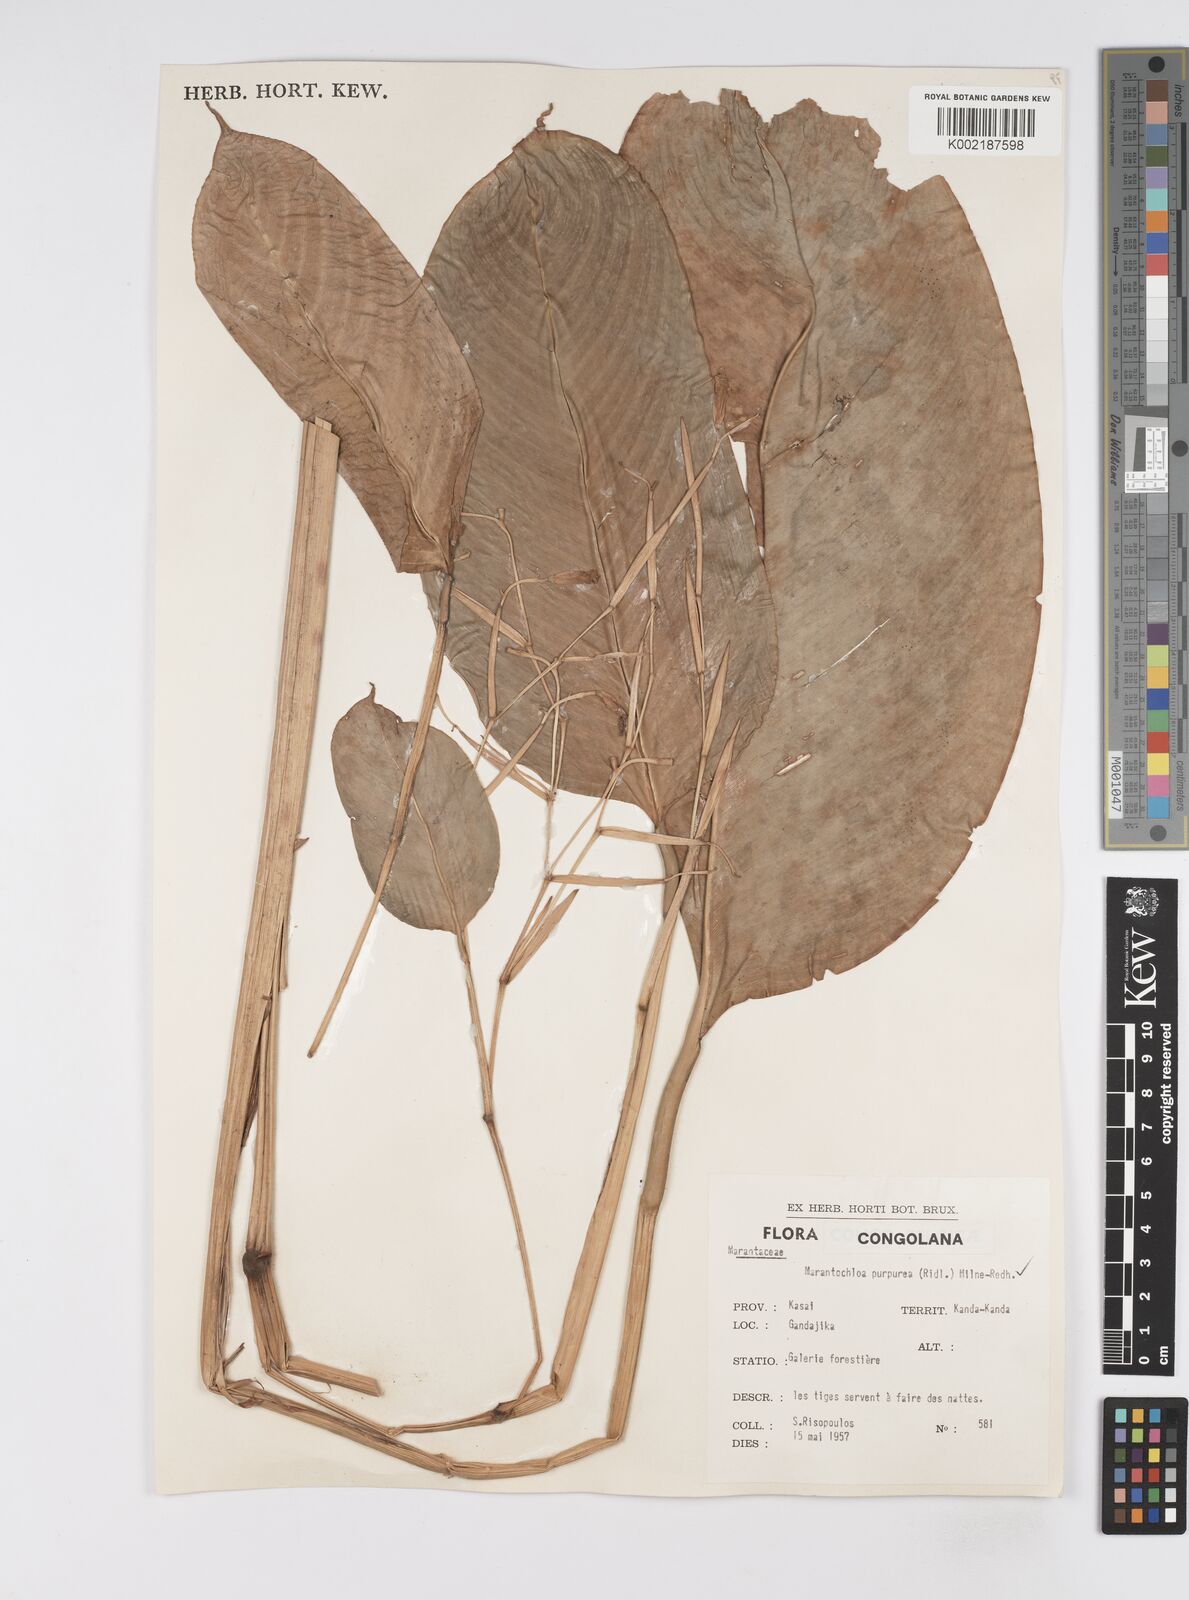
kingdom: Plantae
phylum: Tracheophyta
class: Liliopsida
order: Zingiberales
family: Marantaceae
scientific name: Marantaceae
